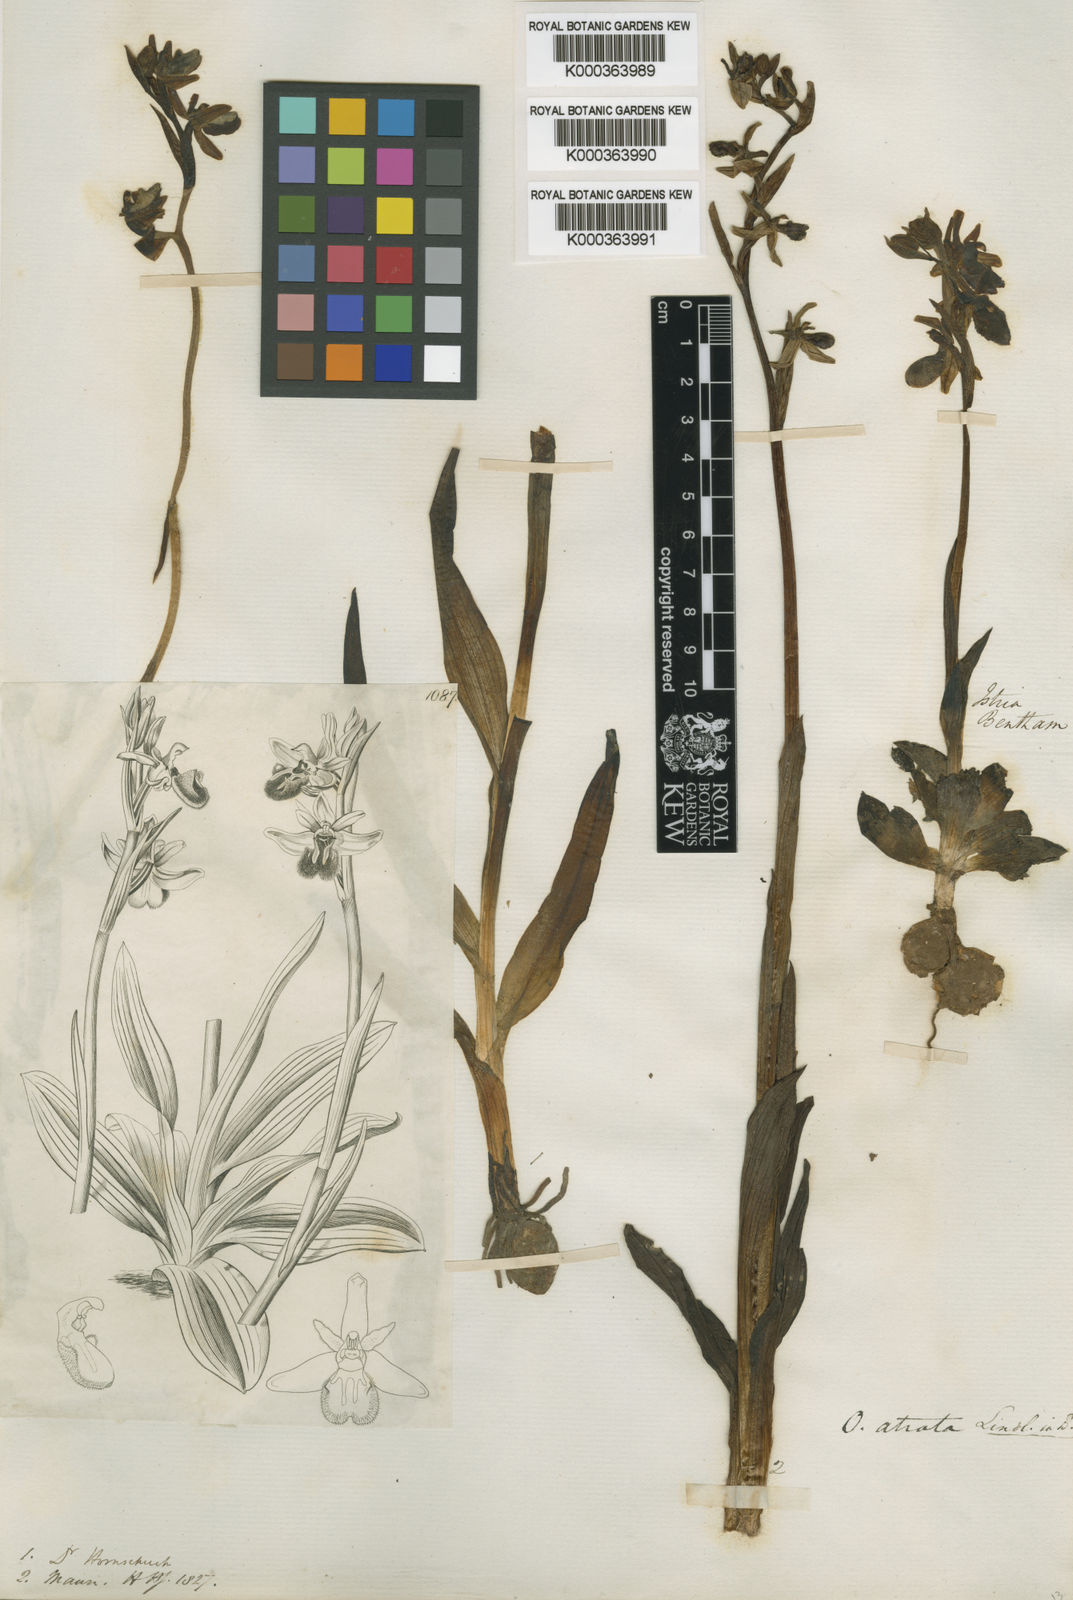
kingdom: Plantae
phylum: Tracheophyta
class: Liliopsida
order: Asparagales
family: Orchidaceae
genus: Ophrys
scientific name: Ophrys sphegodes
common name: Early spider-orchid
